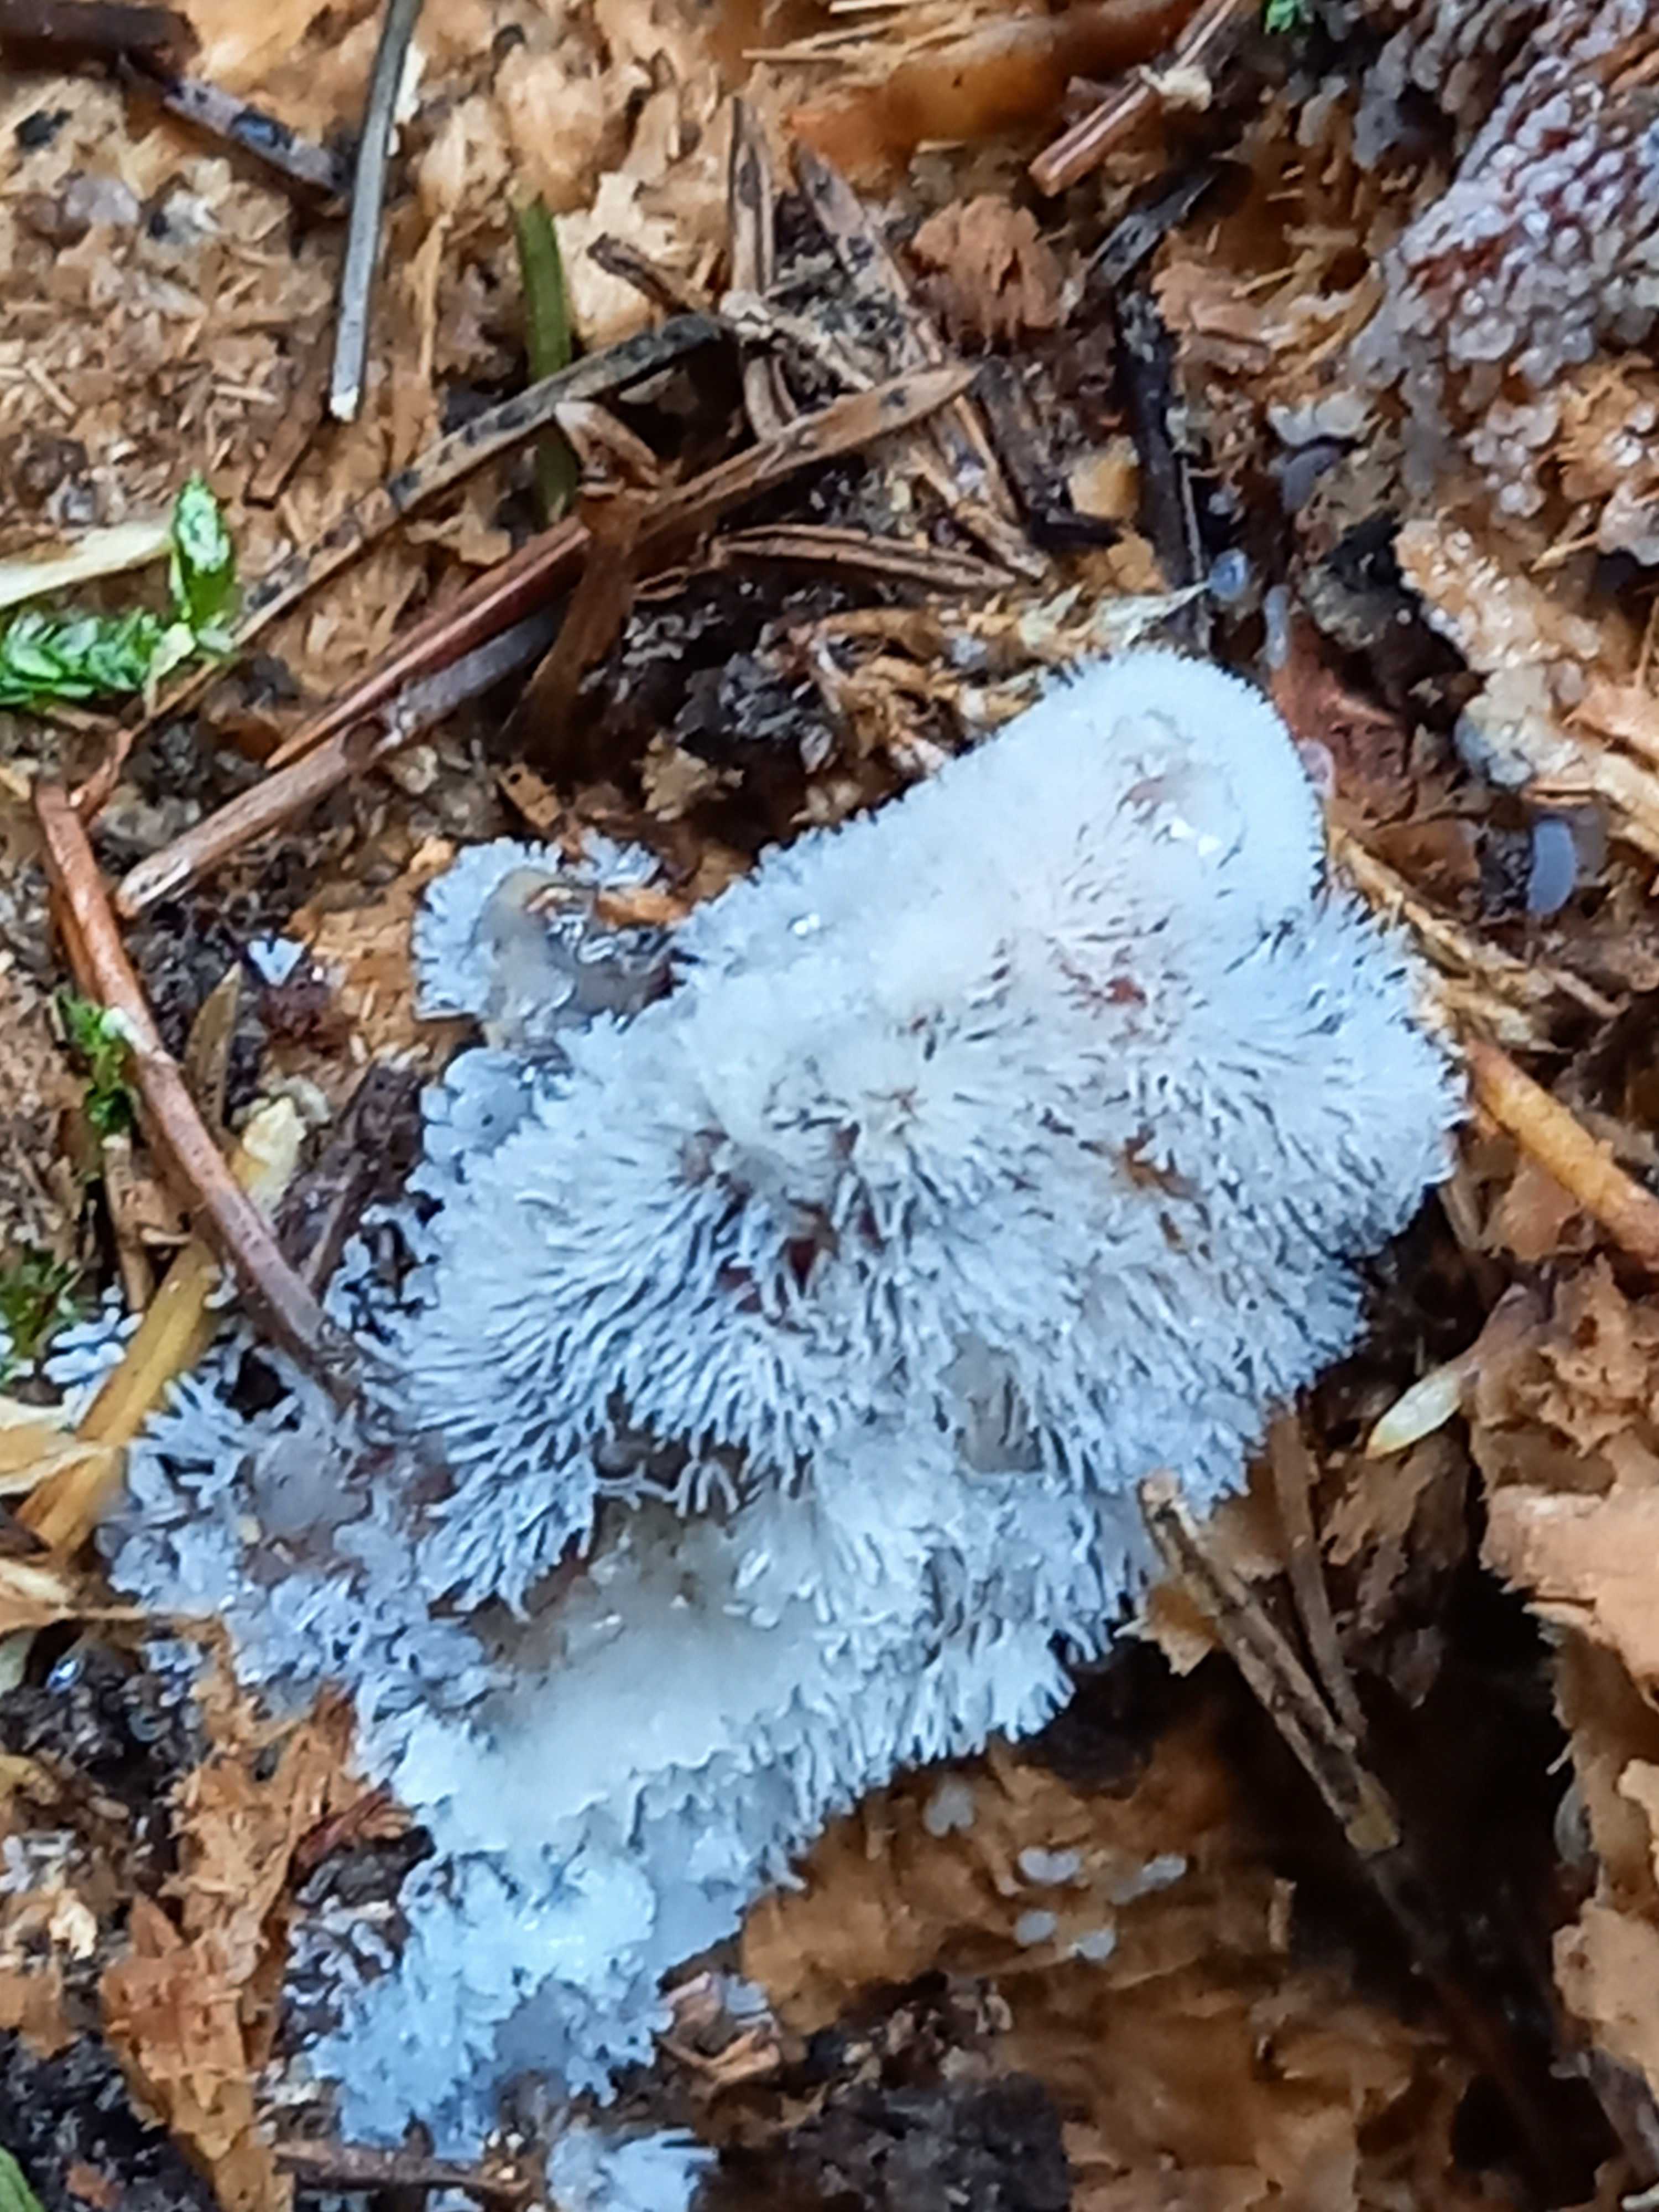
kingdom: Protozoa
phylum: Mycetozoa
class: Protosteliomycetes
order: Ceratiomyxales
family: Ceratiomyxaceae
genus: Ceratiomyxa
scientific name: Ceratiomyxa fruticulosa
